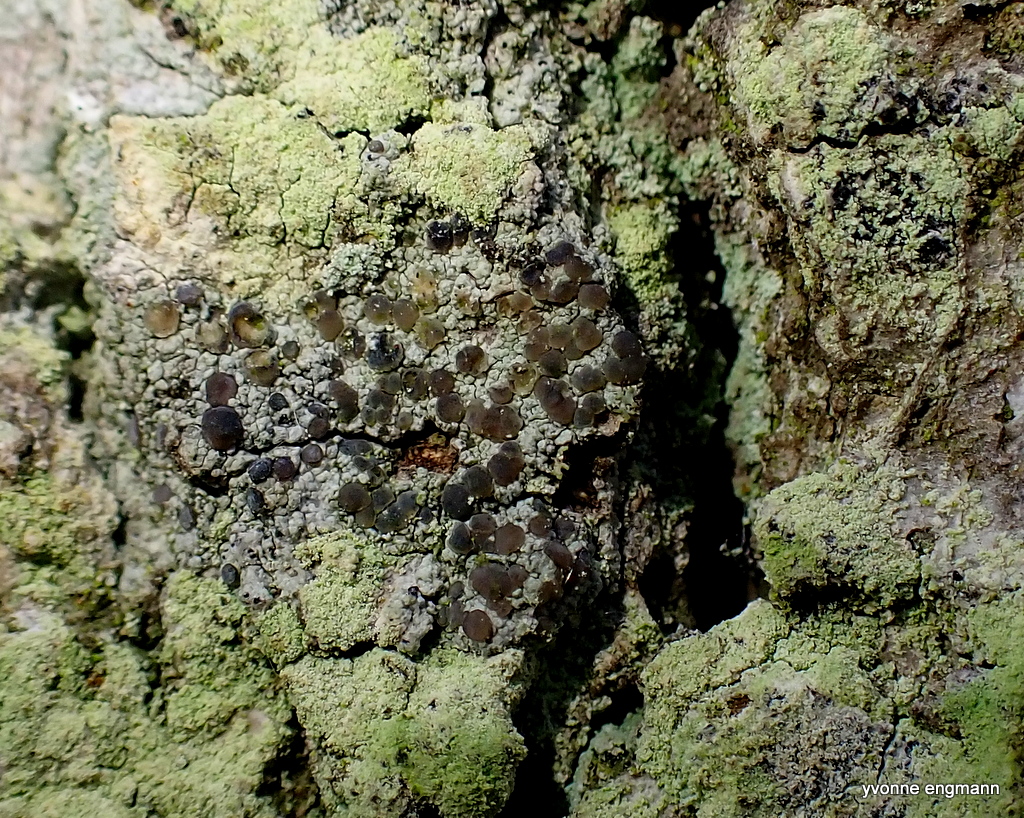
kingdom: Fungi
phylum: Ascomycota
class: Lecanoromycetes
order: Lecanorales
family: Ramalinaceae
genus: Cliostomum
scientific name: Cliostomum griffithii
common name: trefarvet tensporelav
